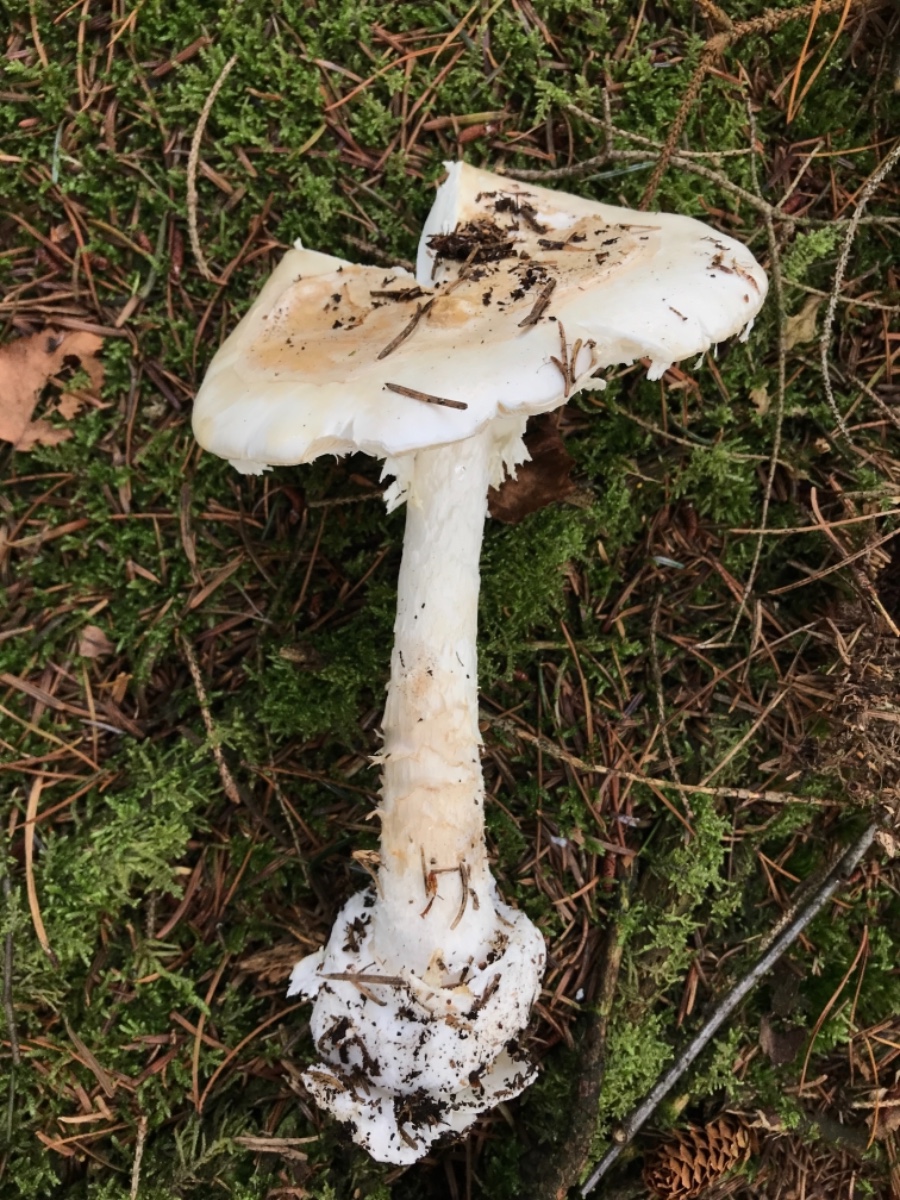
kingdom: Fungi
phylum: Basidiomycota
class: Agaricomycetes
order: Agaricales
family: Amanitaceae
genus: Amanita
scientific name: Amanita virosa
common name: snehvid fluesvamp
